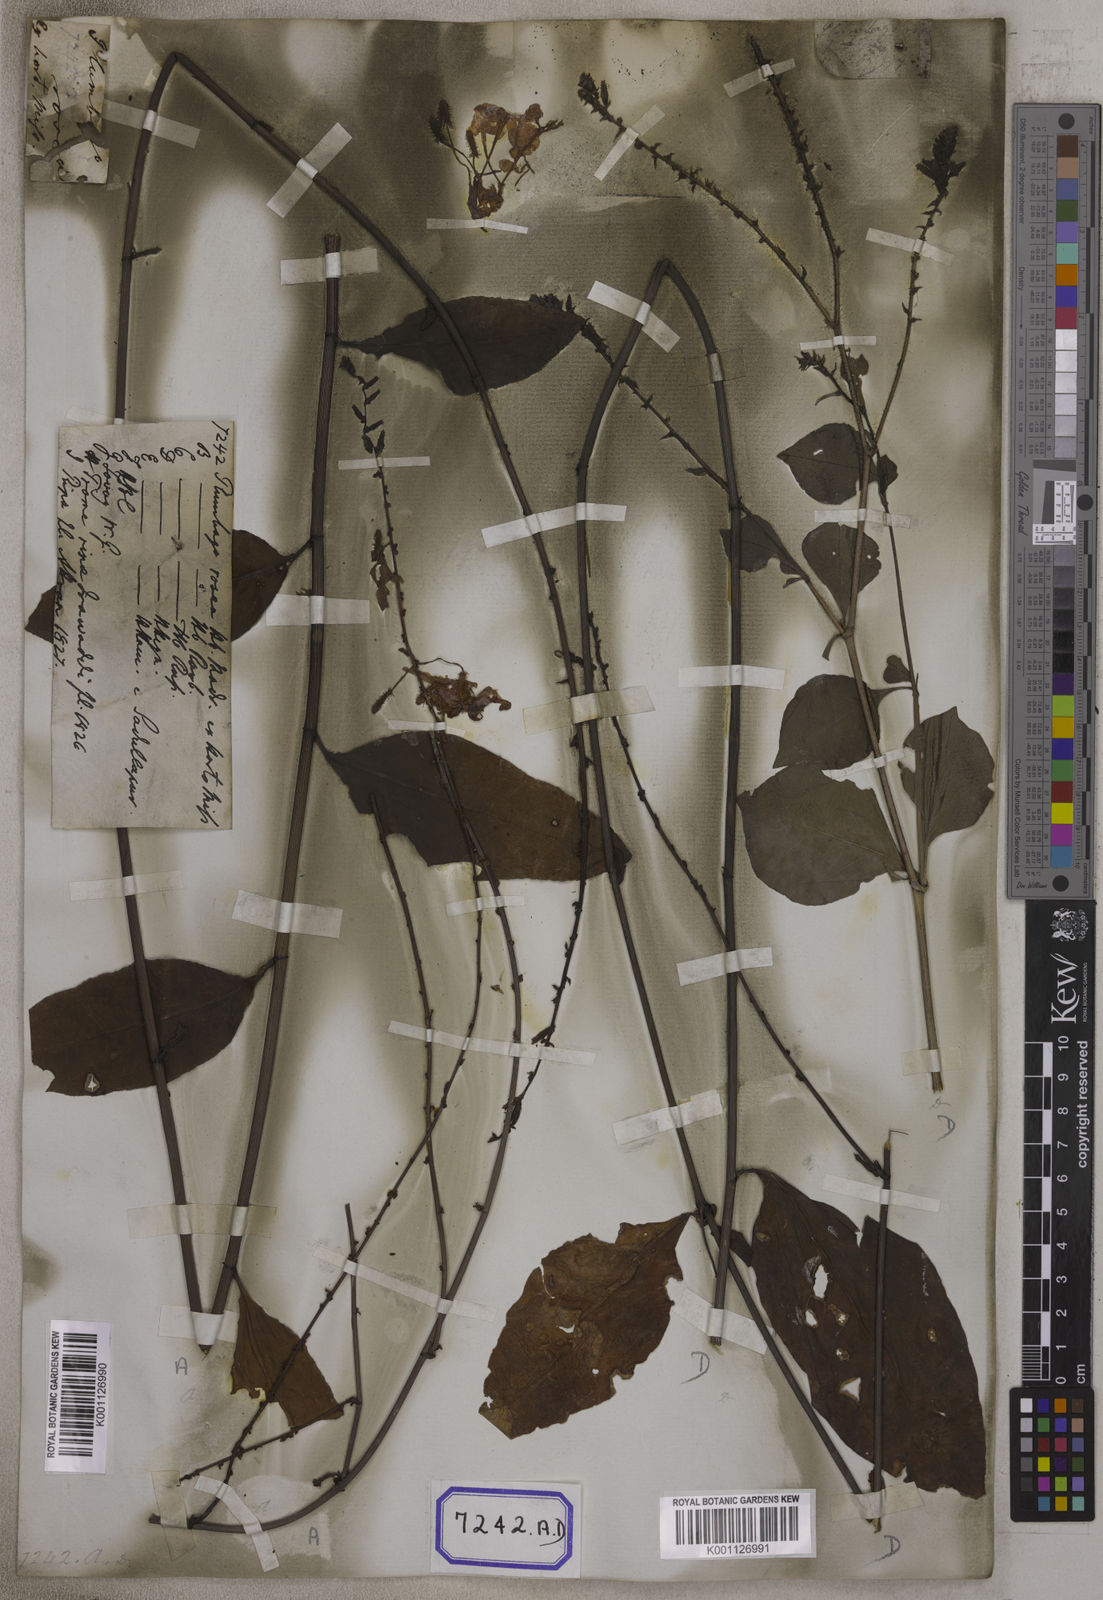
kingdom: Plantae
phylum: Tracheophyta
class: Magnoliopsida
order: Caryophyllales
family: Plumbaginaceae
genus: Plumbago
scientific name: Plumbago indica
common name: Indian leadwort
